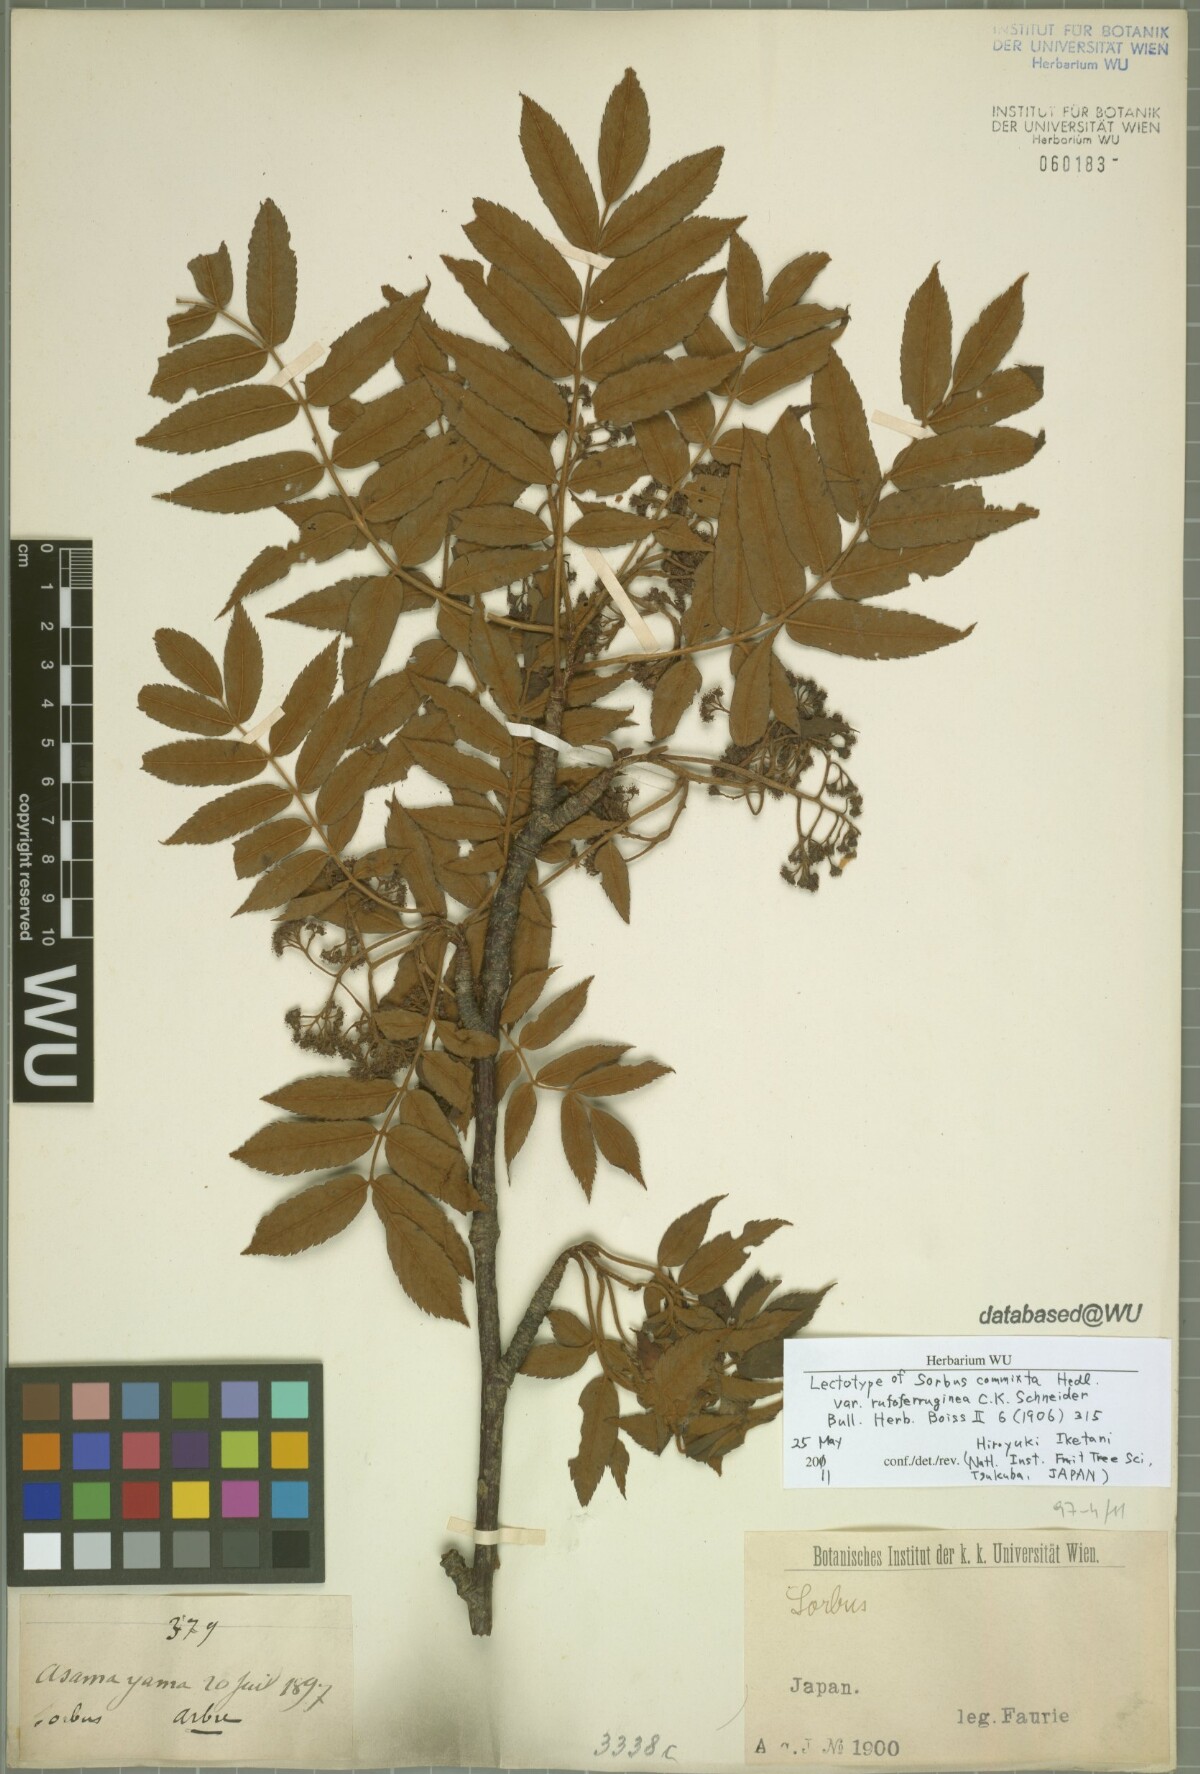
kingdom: Plantae
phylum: Tracheophyta
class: Magnoliopsida
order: Rosales
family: Rosaceae
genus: Sorbus
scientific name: Sorbus commixta
